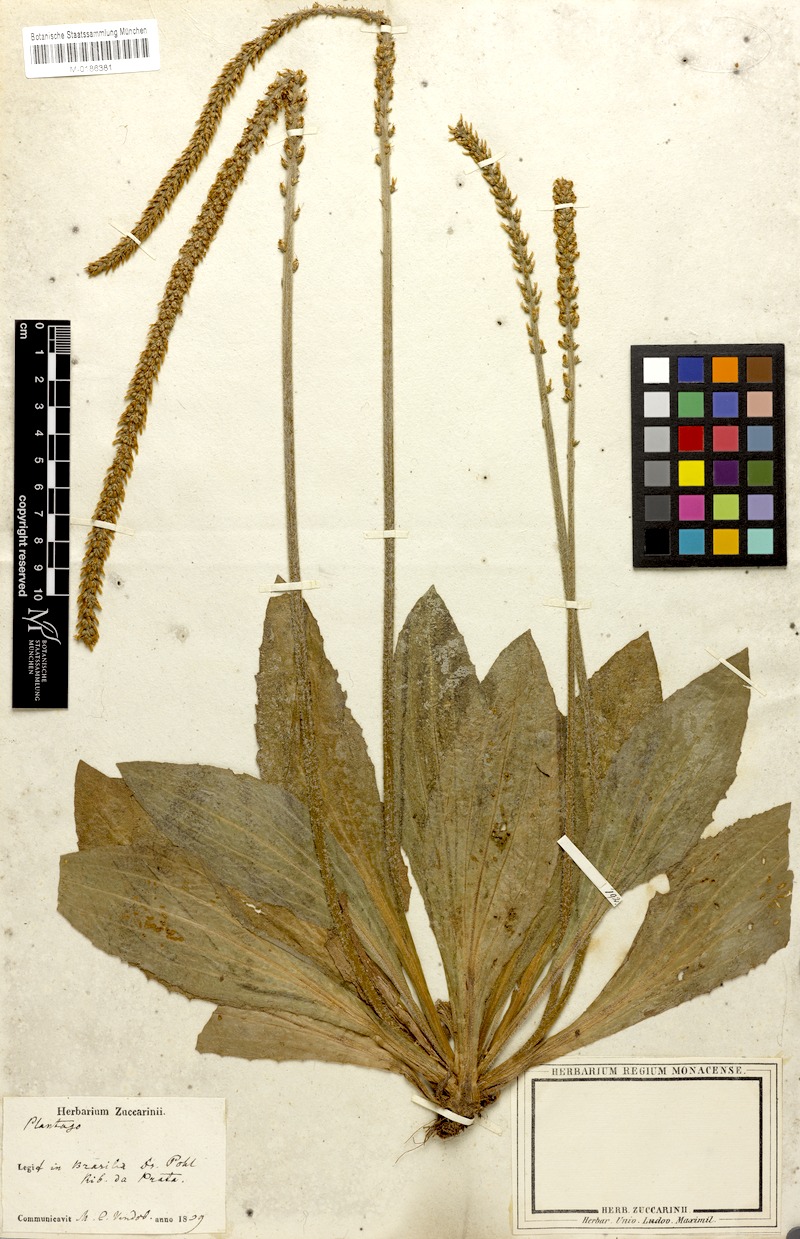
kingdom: Plantae
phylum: Tracheophyta
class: Magnoliopsida
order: Lamiales
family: Plantaginaceae
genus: Plantago
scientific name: Plantago guilleminiana
